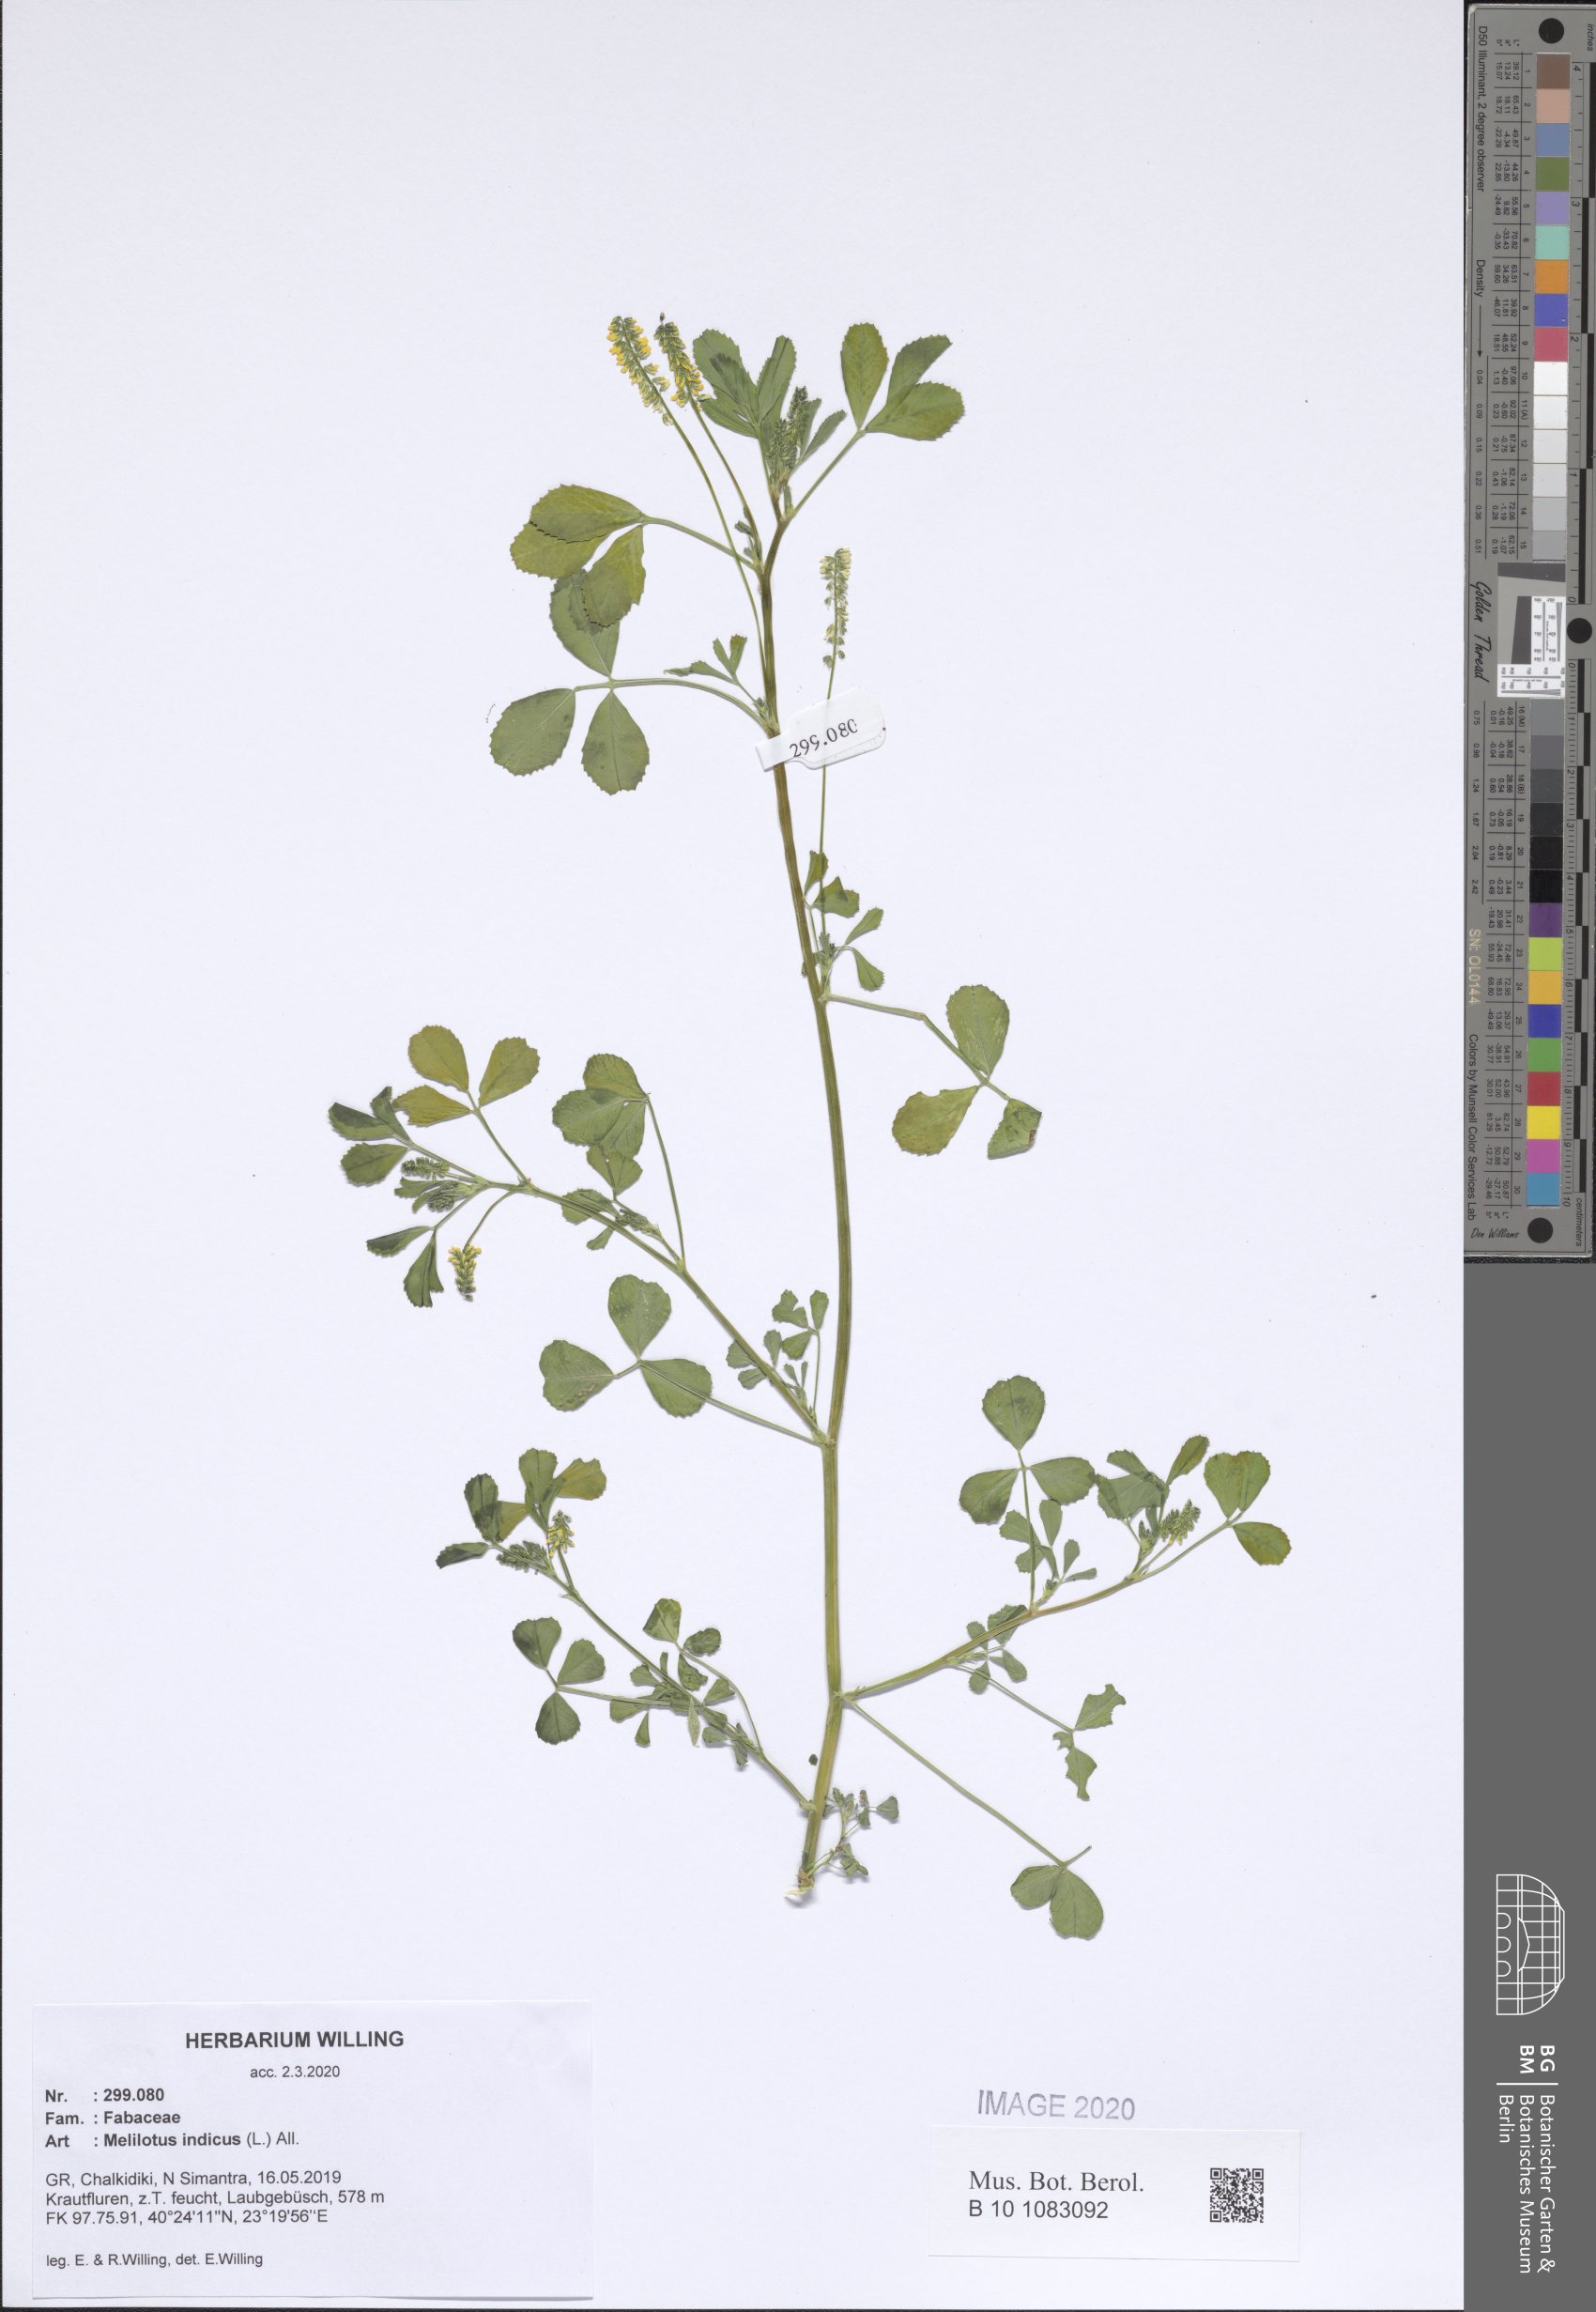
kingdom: Plantae
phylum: Tracheophyta
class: Magnoliopsida
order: Fabales
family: Fabaceae
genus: Melilotus
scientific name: Melilotus indicus
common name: Small melilot
